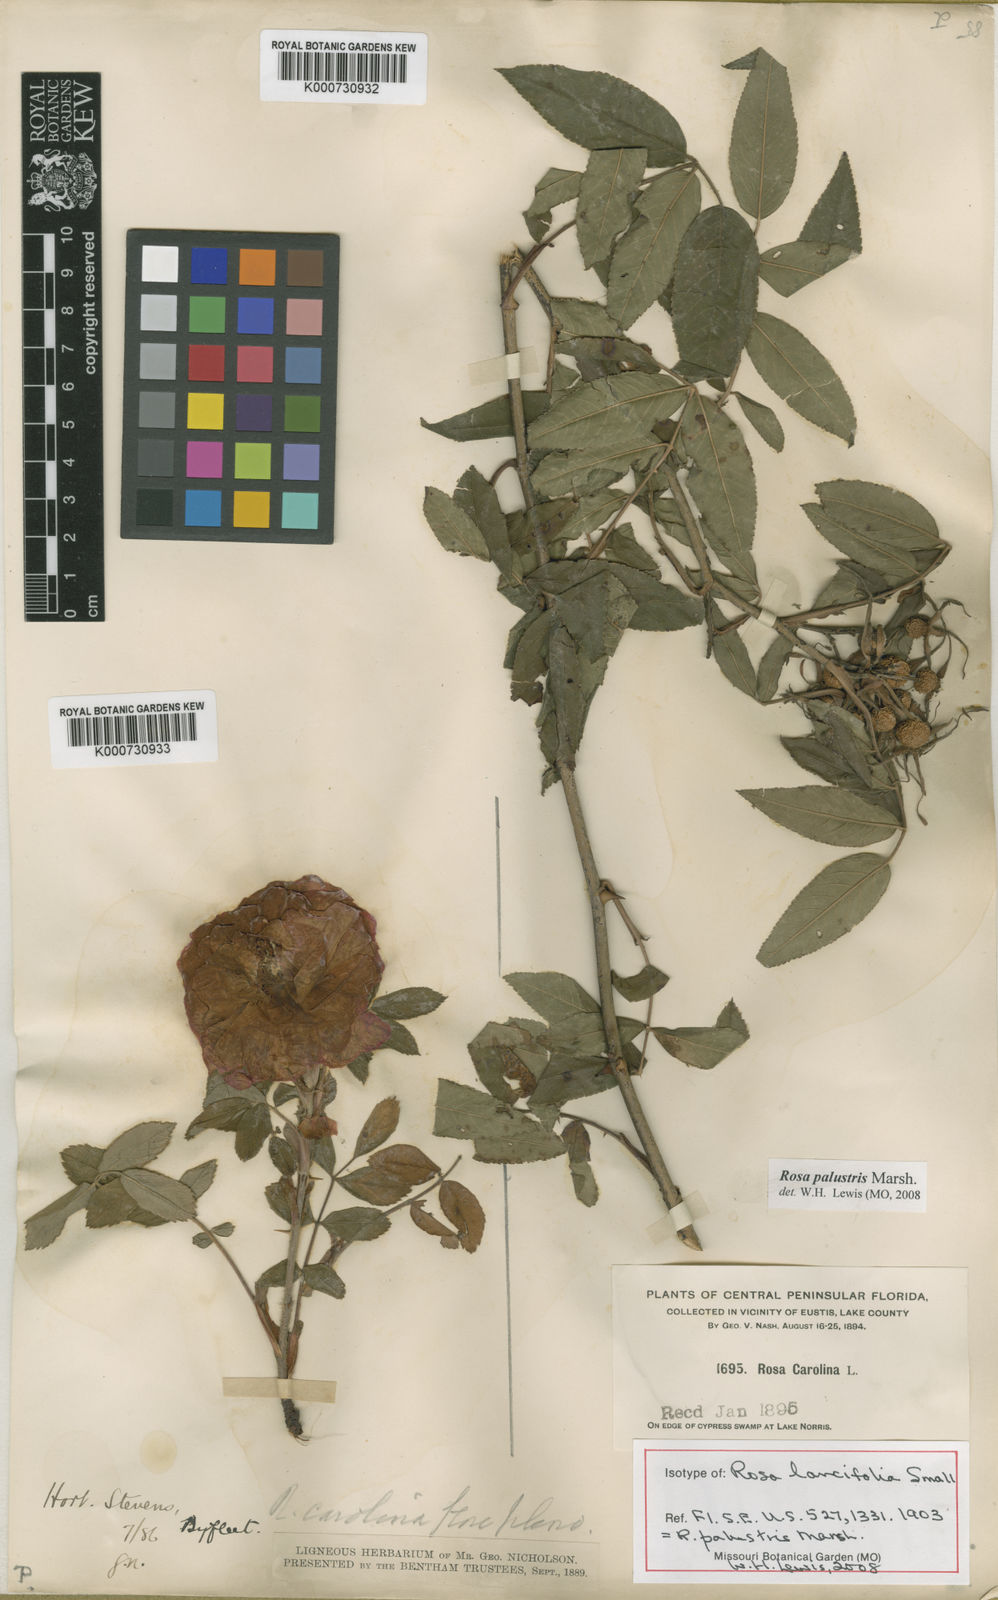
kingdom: Plantae
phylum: Tracheophyta
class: Magnoliopsida
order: Rosales
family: Rosaceae
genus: Rosa
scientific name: Rosa palustris
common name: Swamp rose
